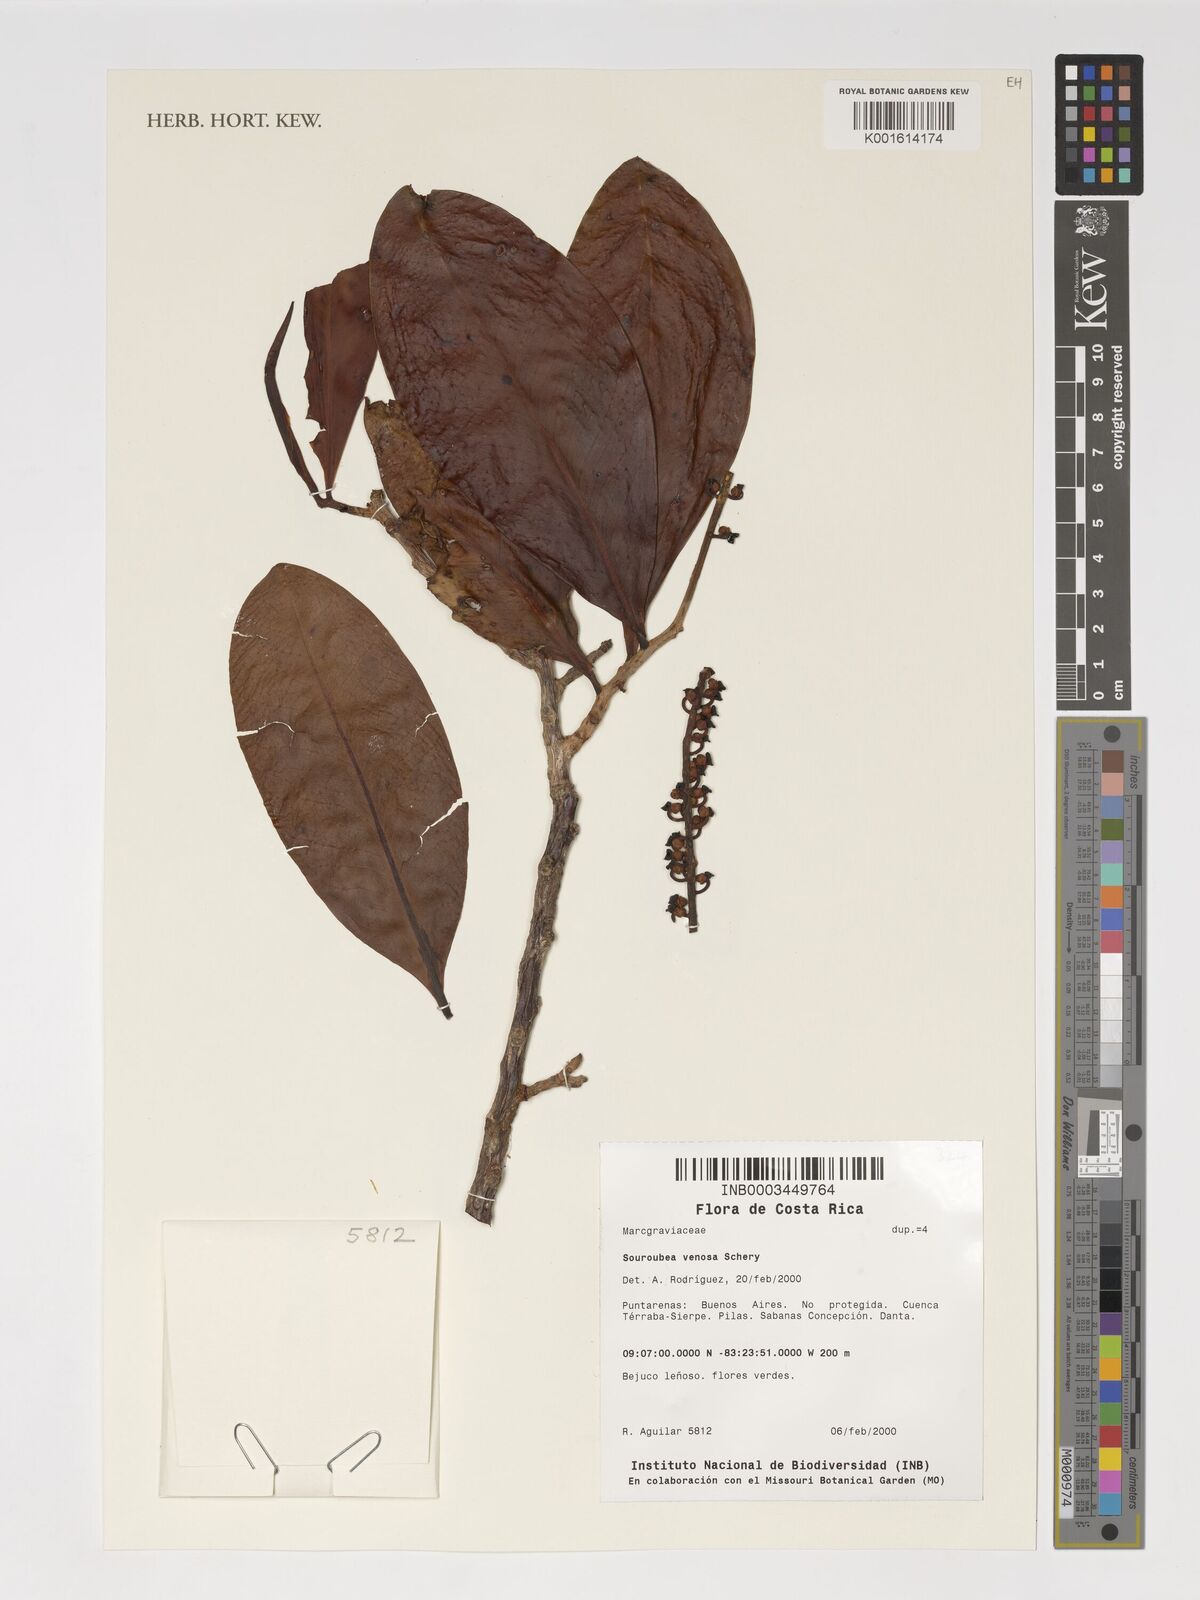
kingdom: Plantae
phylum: Tracheophyta
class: Magnoliopsida
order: Ericales
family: Marcgraviaceae
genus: Souroubea
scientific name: Souroubea venosa
